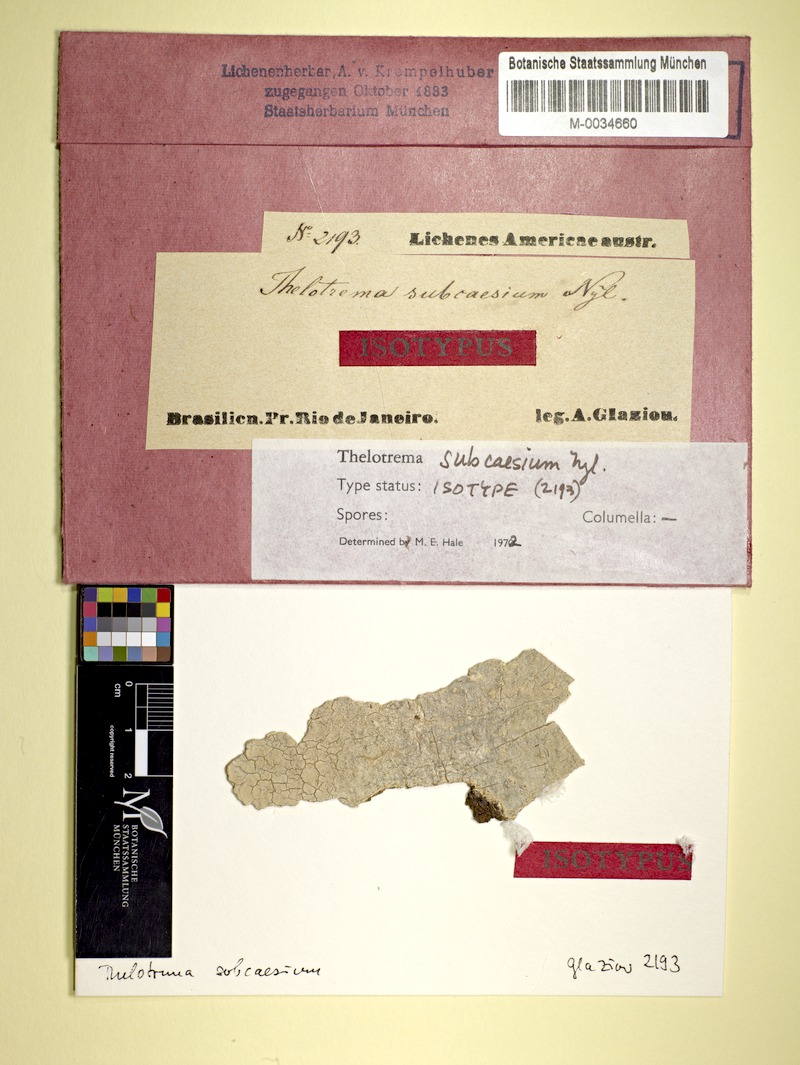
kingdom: Fungi
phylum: Ascomycota
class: Lecanoromycetes
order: Ostropales
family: Graphidaceae
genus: Thelotrema
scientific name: Thelotrema
